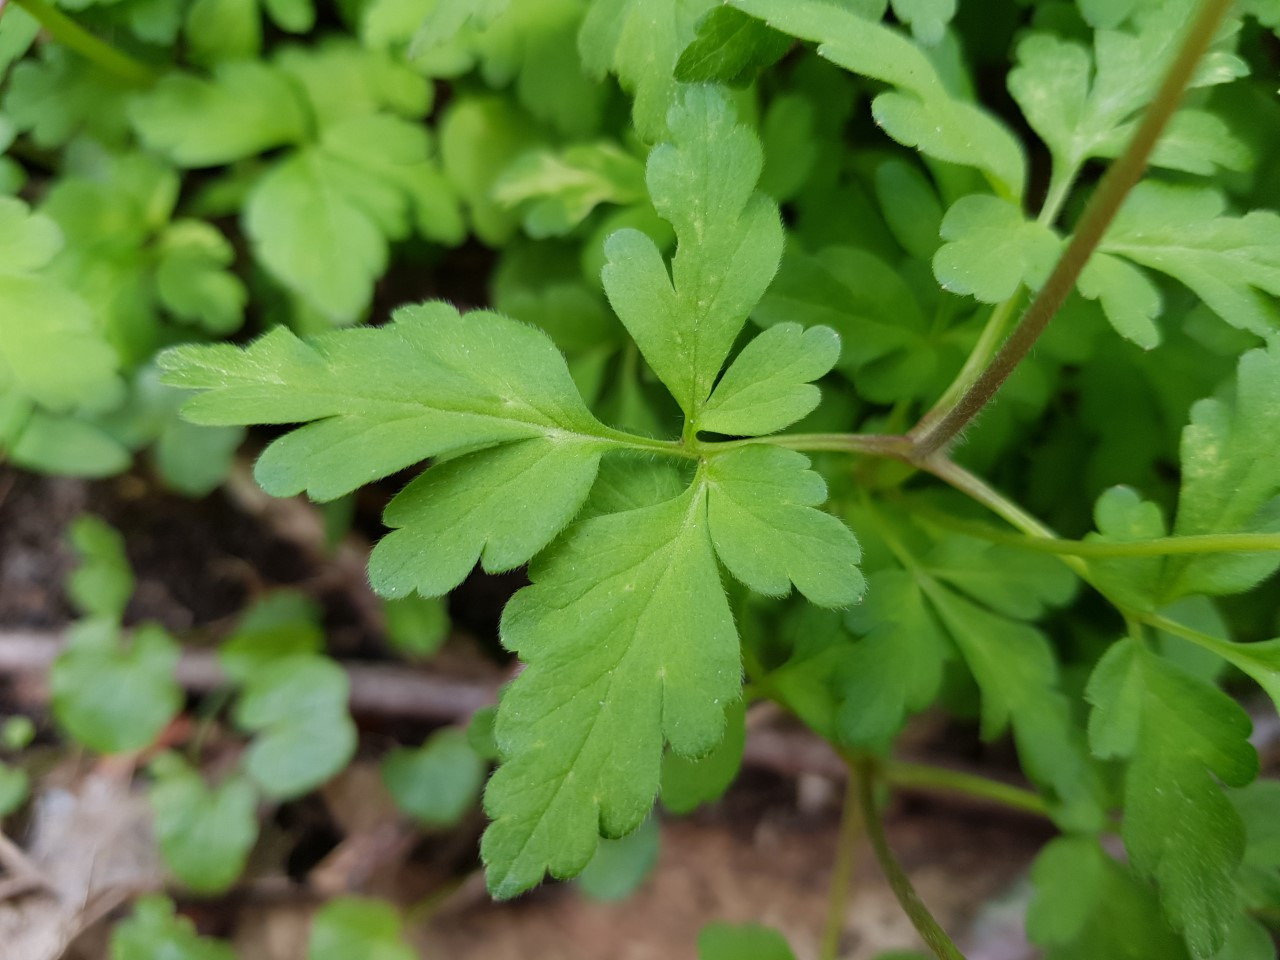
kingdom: Plantae
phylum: Tracheophyta
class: Magnoliopsida
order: Ranunculales
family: Ranunculaceae
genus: Anemone
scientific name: Anemone apennina
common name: Apenniner-anemone
